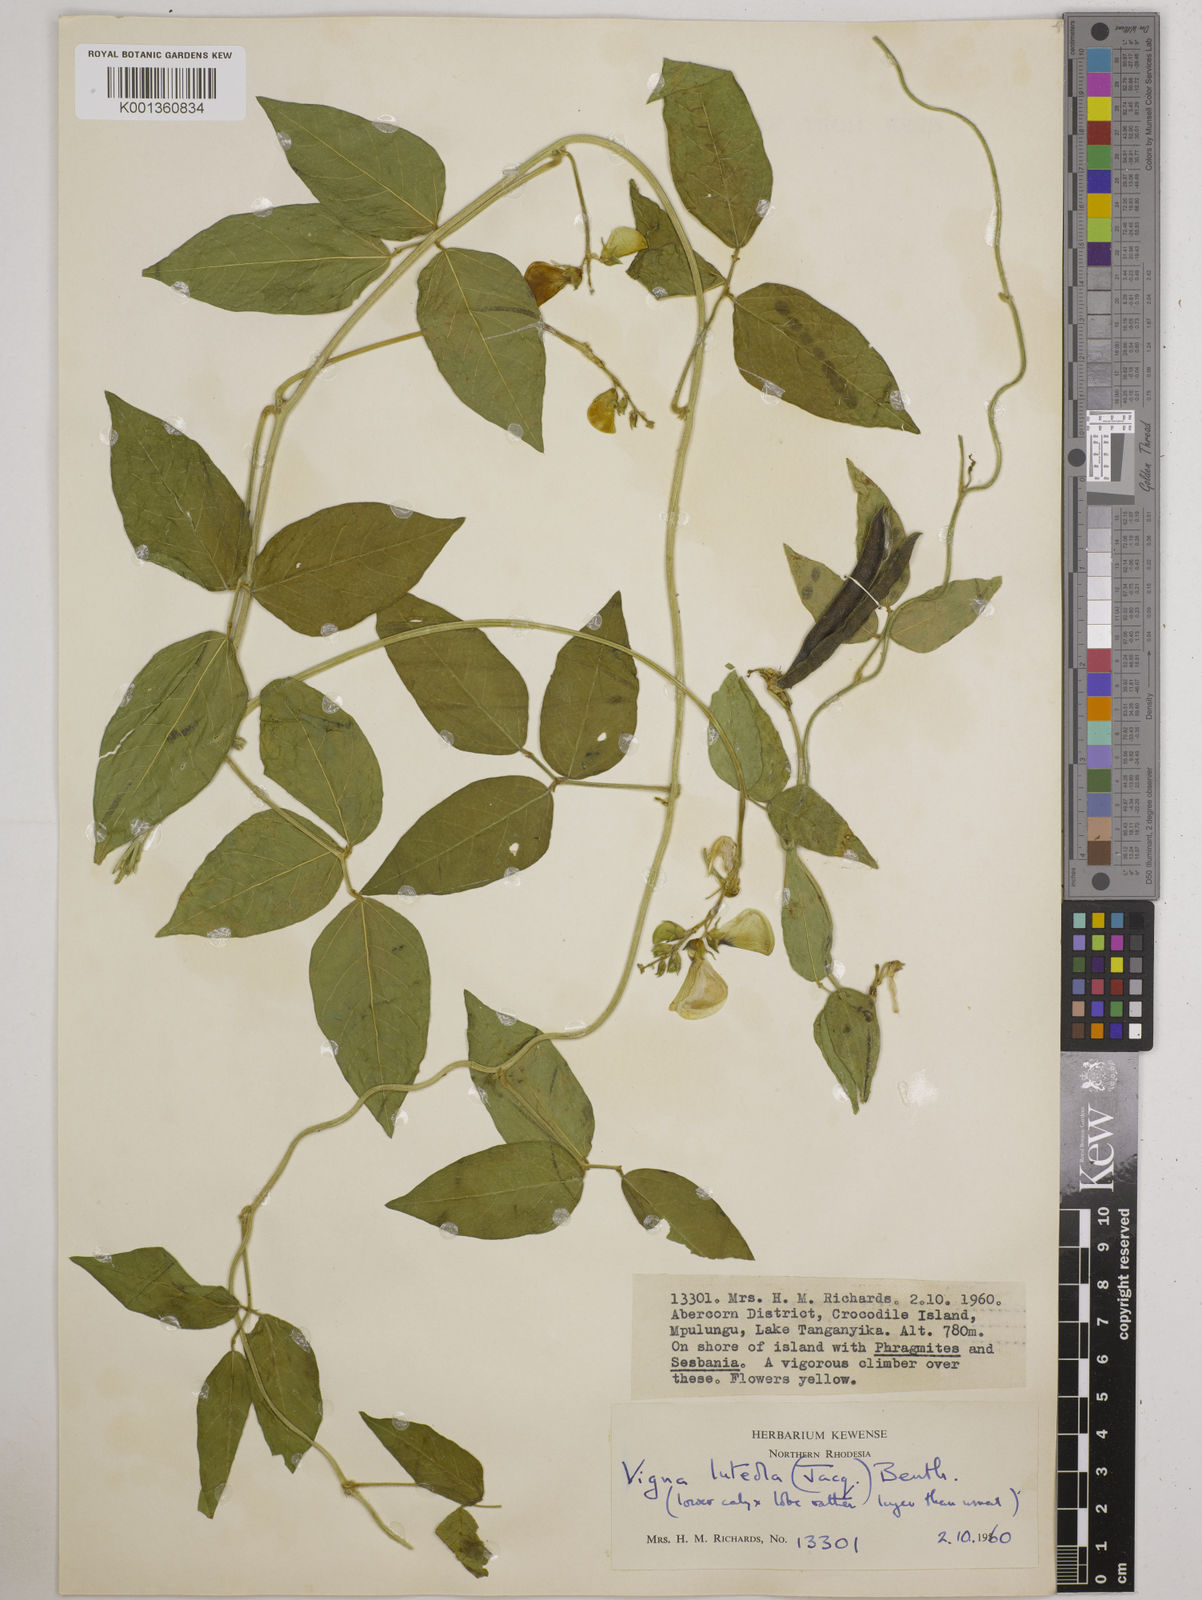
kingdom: Plantae
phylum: Tracheophyta
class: Magnoliopsida
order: Fabales
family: Fabaceae
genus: Vigna
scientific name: Vigna luteola
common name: Hairypod cowpea
